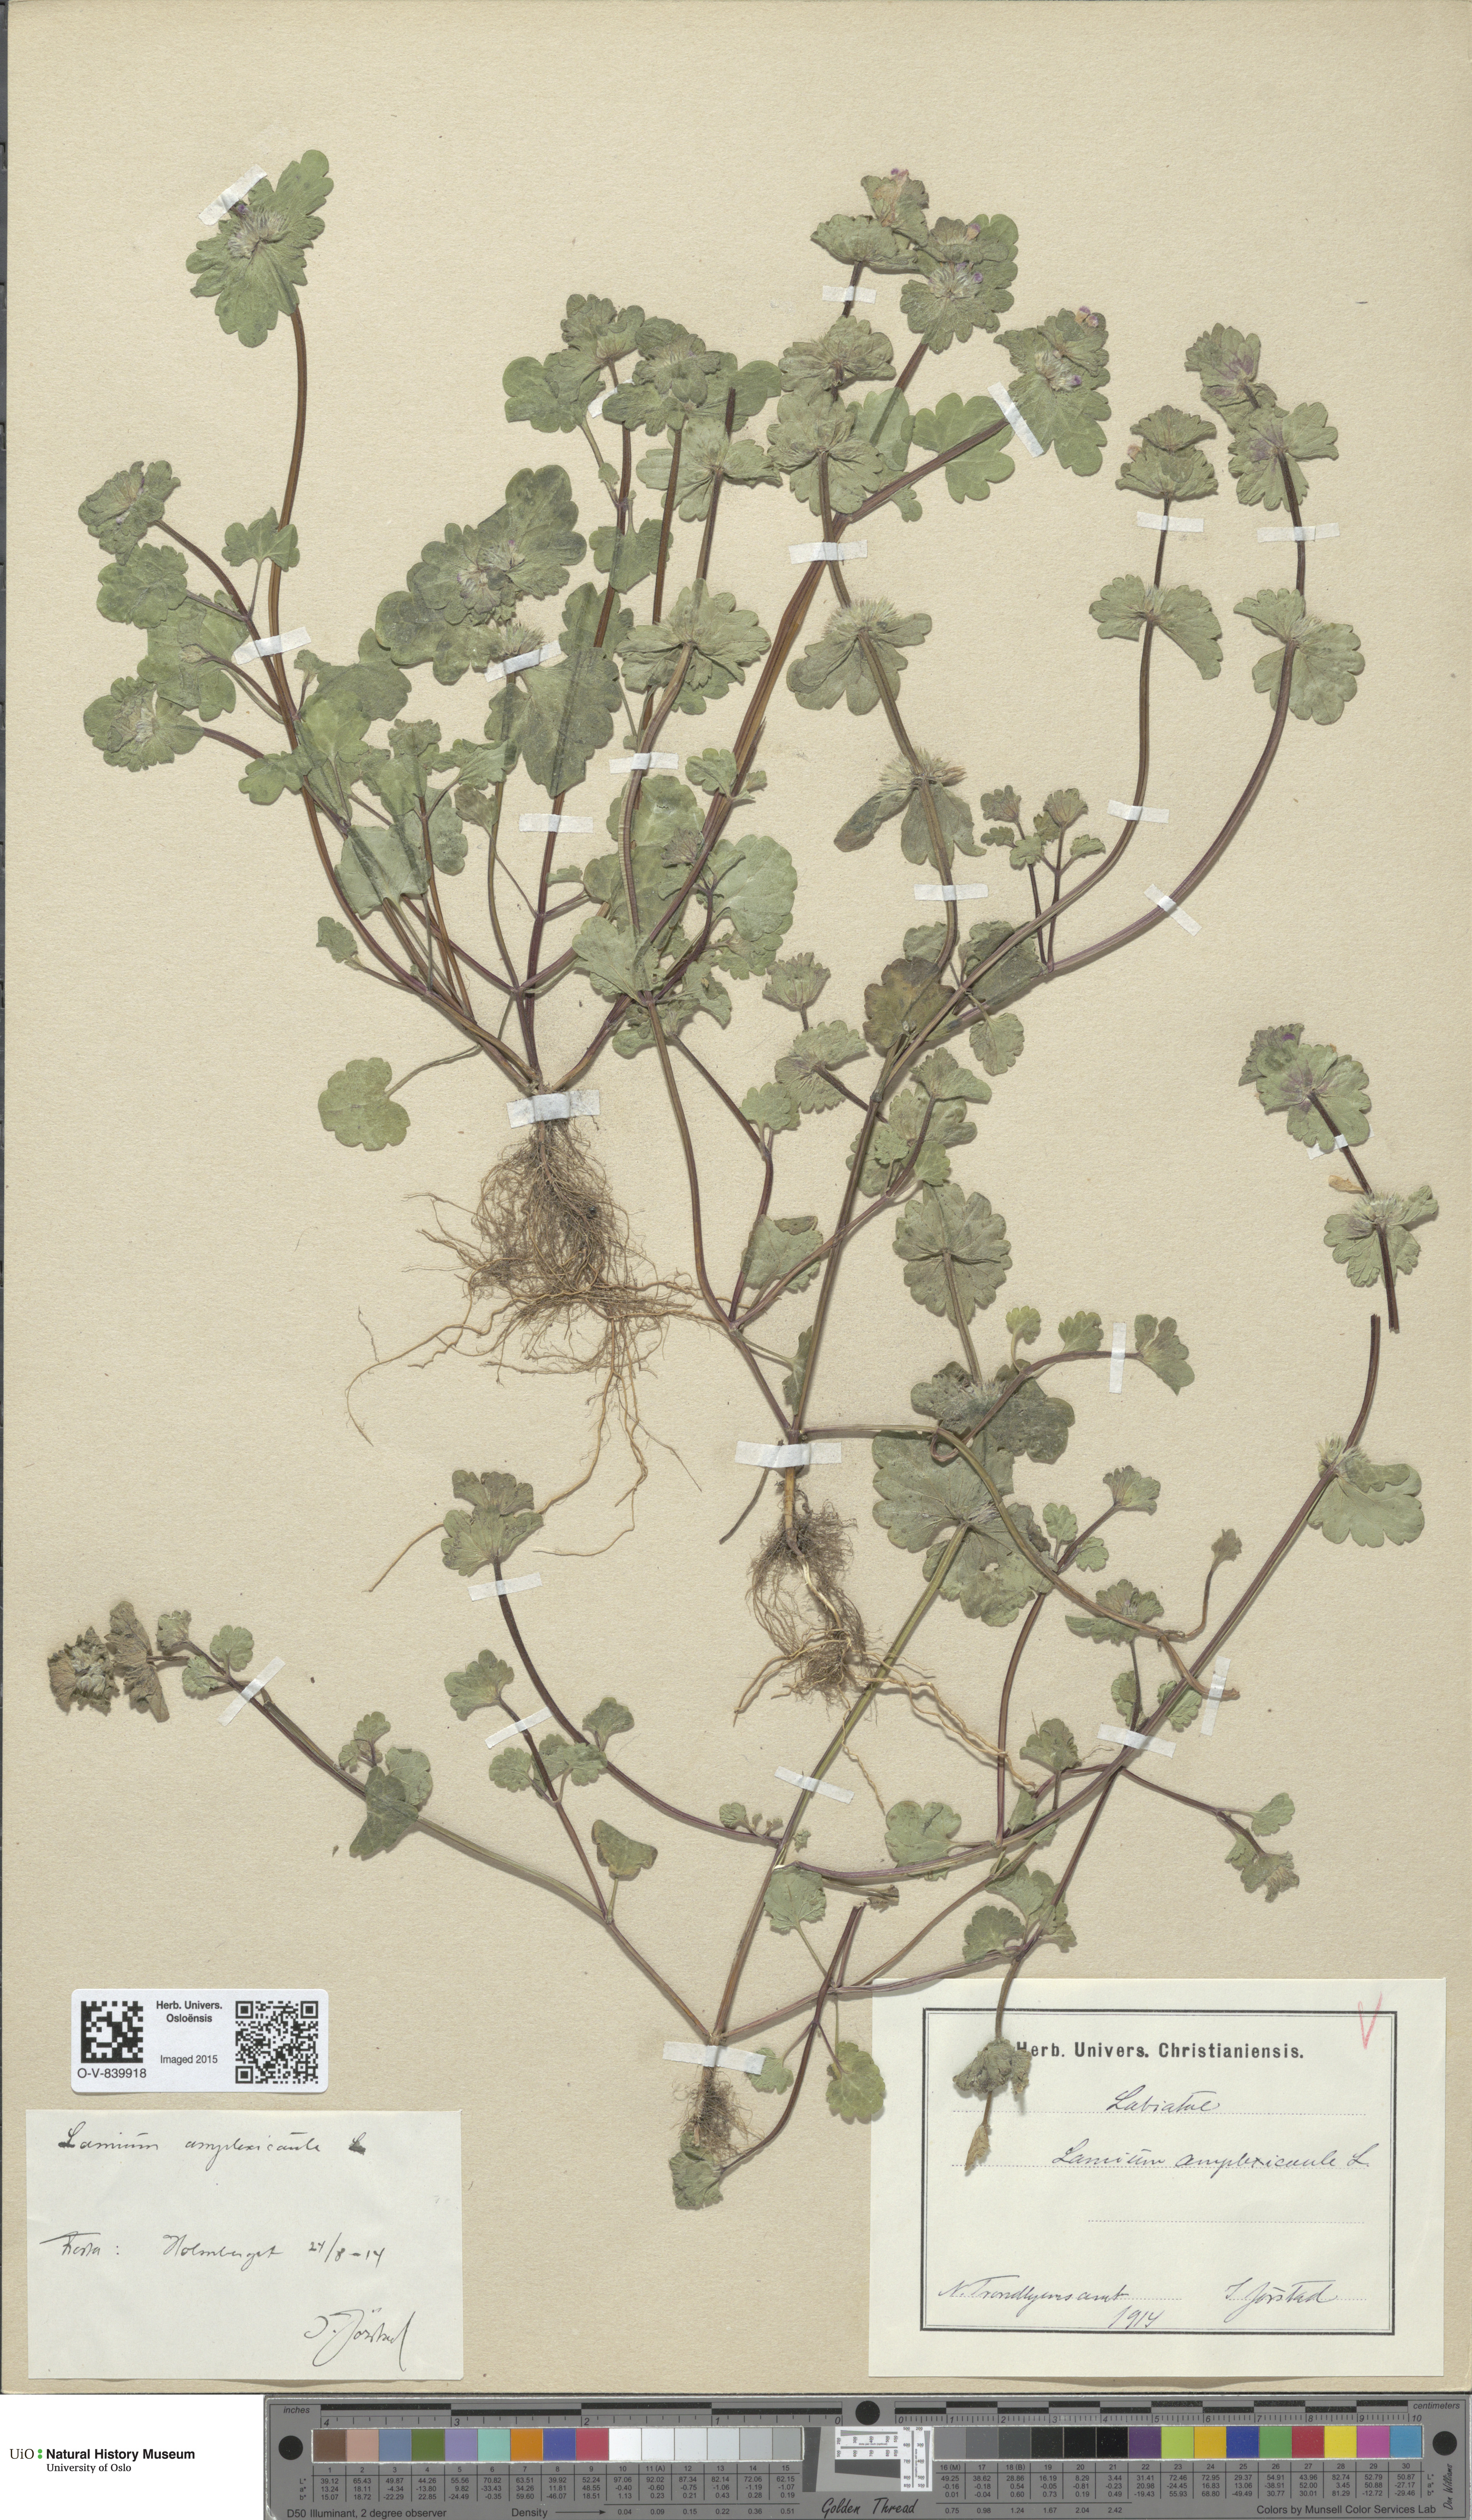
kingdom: Plantae
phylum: Tracheophyta
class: Magnoliopsida
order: Lamiales
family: Lamiaceae
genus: Lamium
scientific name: Lamium amplexicaule
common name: Henbit dead-nettle
